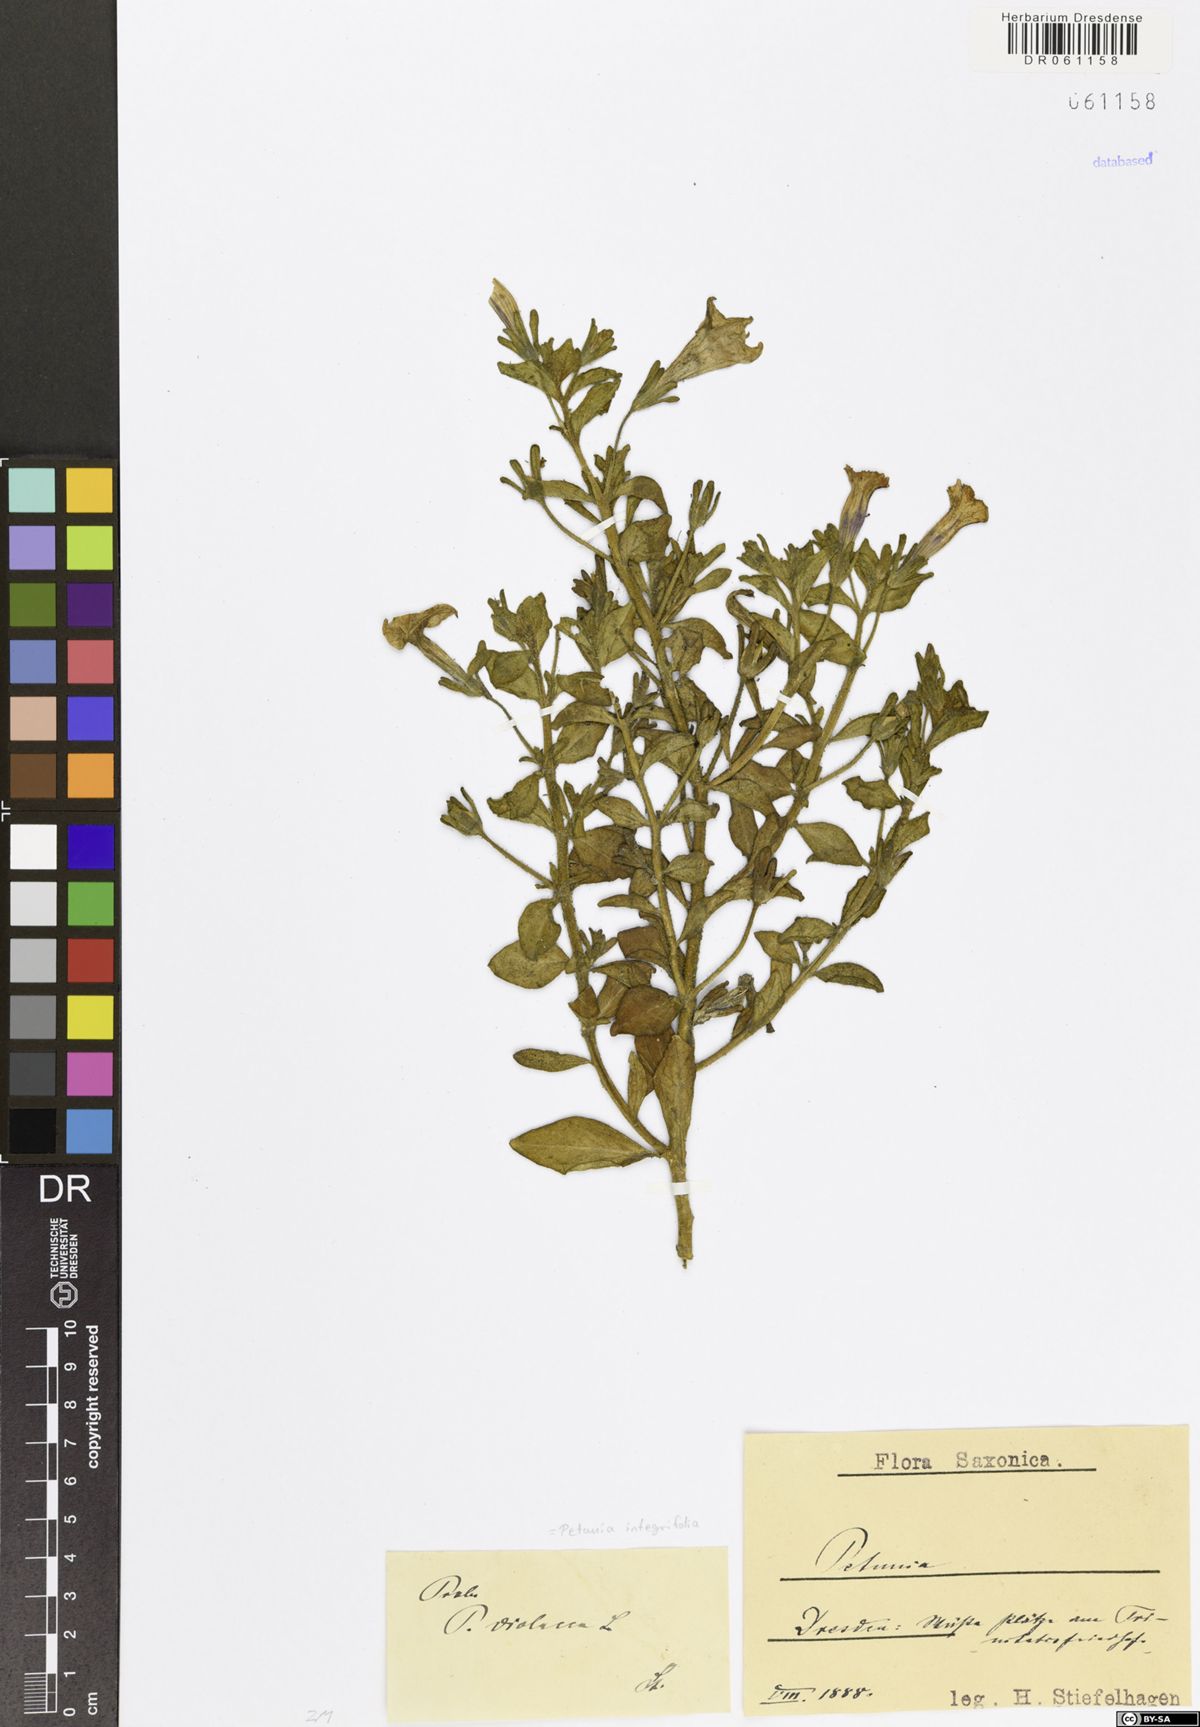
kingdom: Plantae
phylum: Tracheophyta
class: Magnoliopsida
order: Solanales
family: Solanaceae
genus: Petunia
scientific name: Petunia integrifolia
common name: Violet-flower petunia
